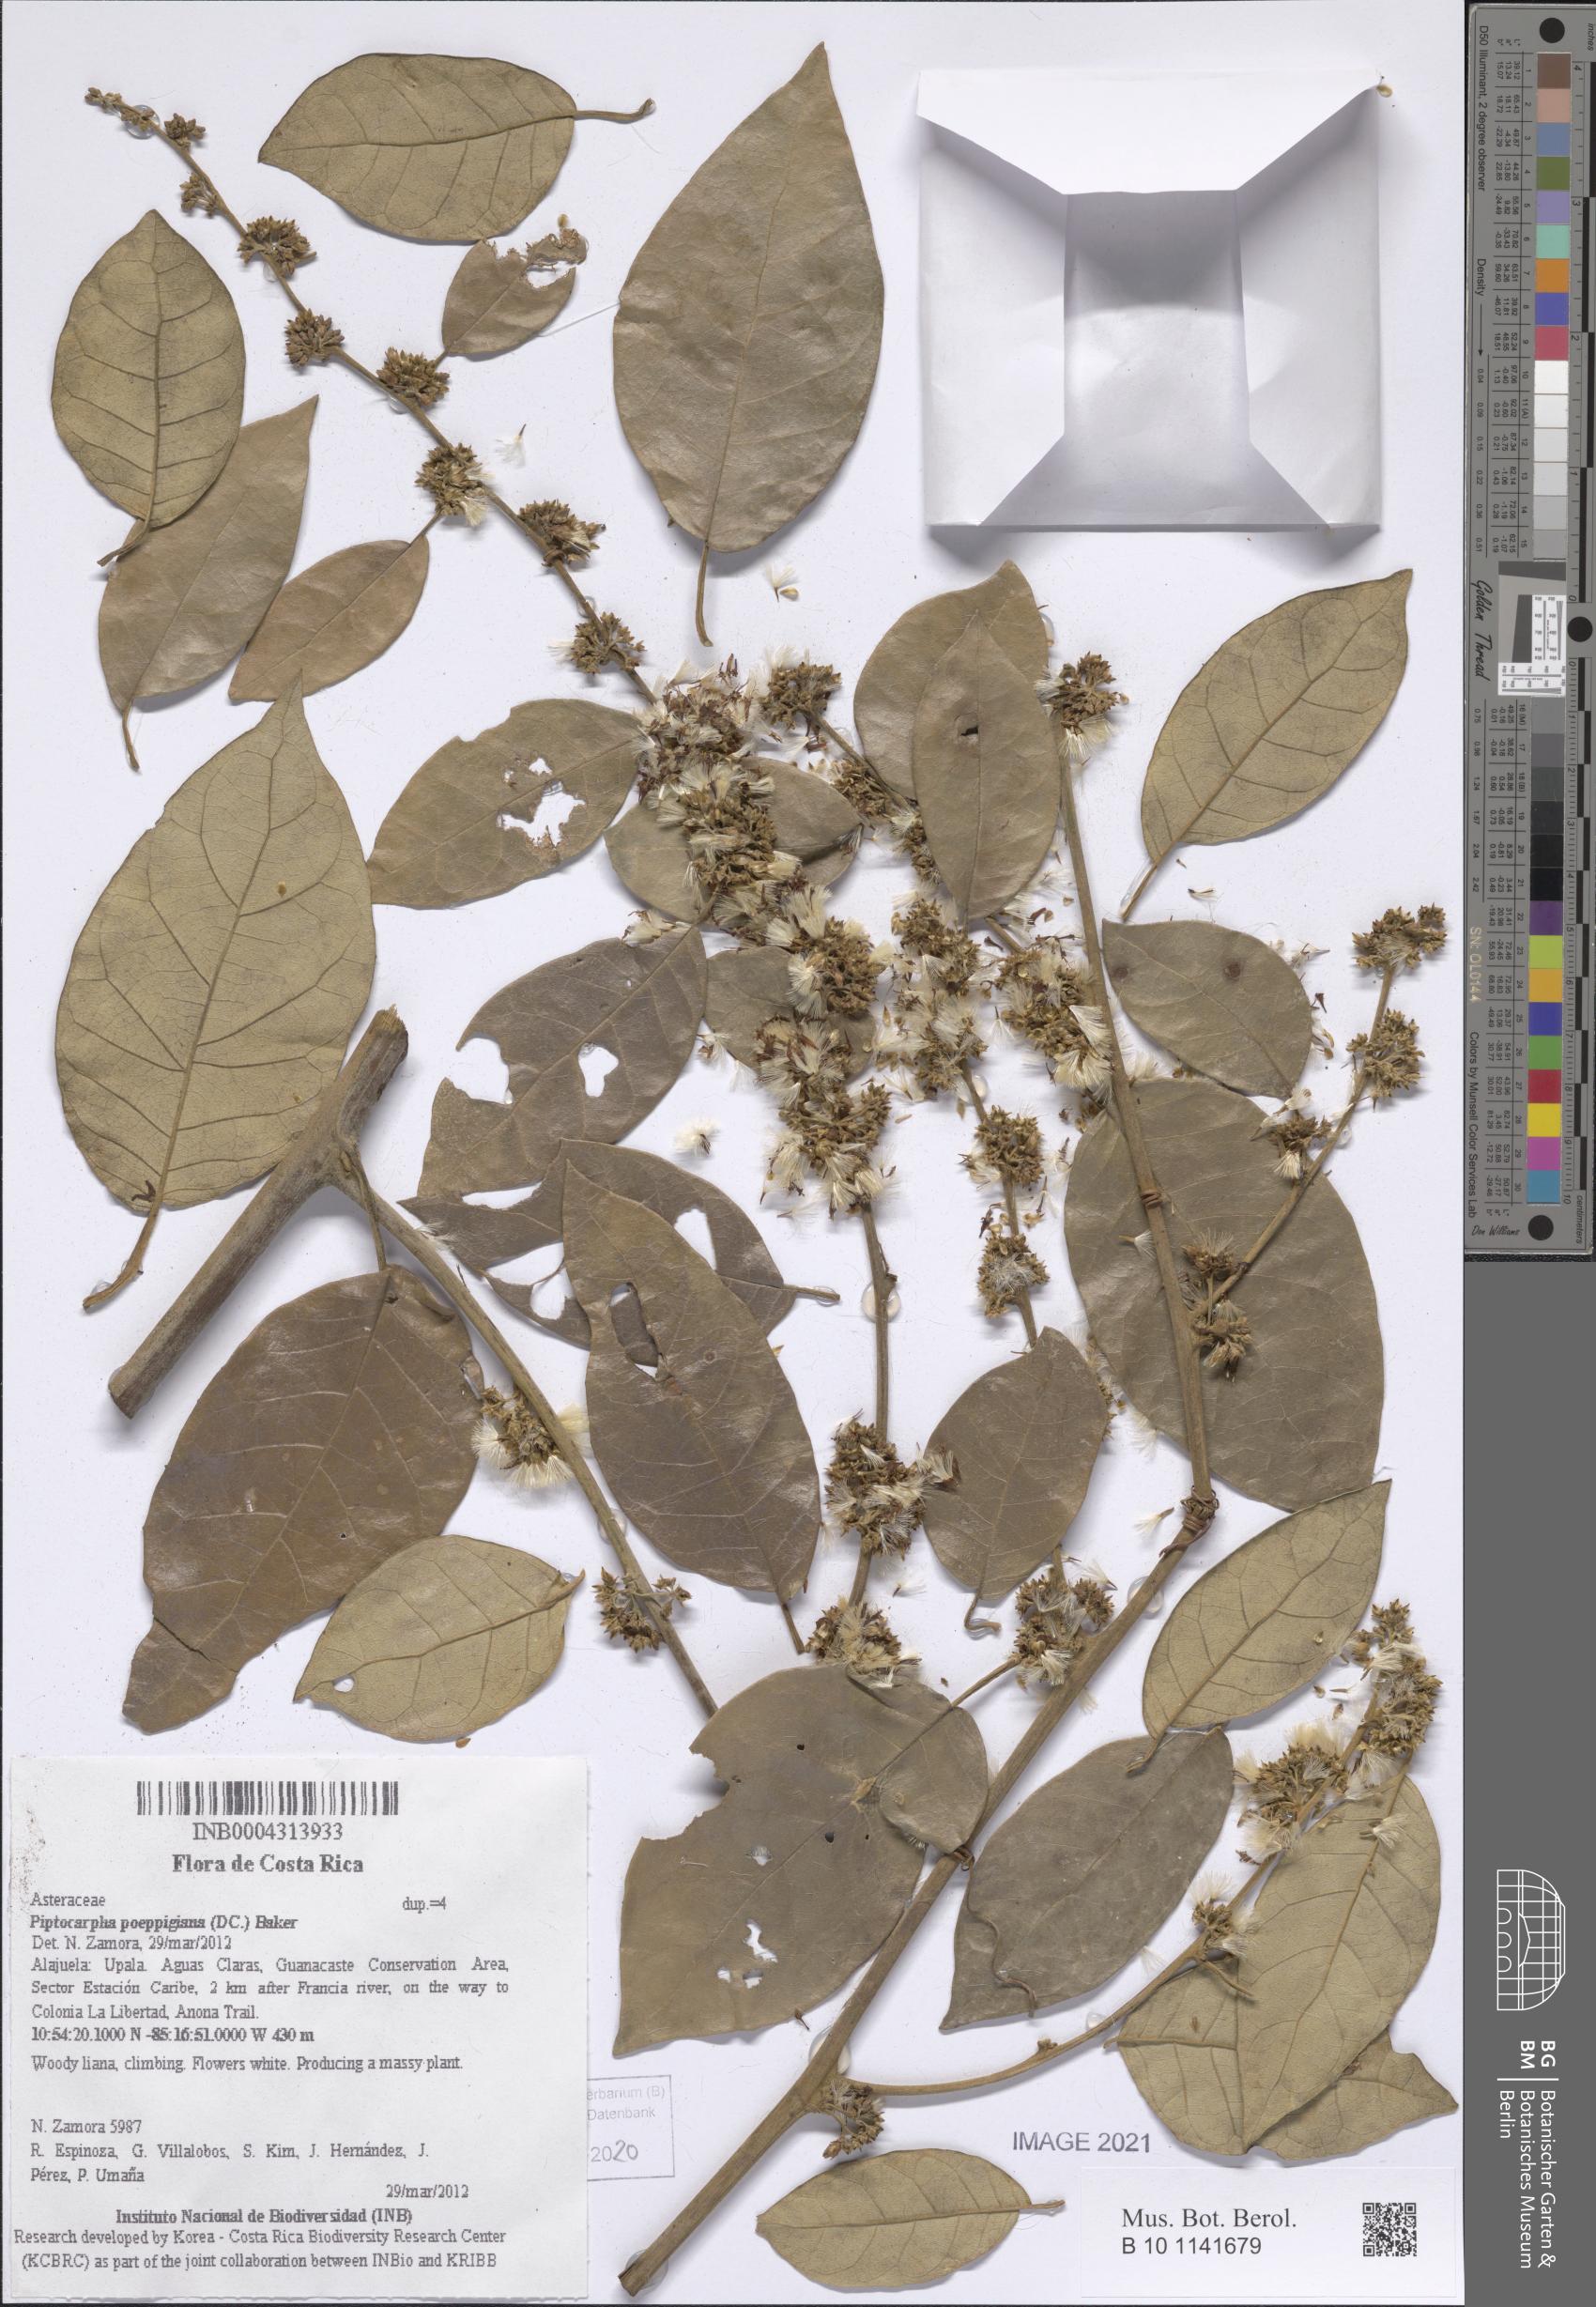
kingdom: Plantae
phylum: Tracheophyta
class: Magnoliopsida
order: Asterales
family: Asteraceae
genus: Piptocarpha
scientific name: Piptocarpha poeppigiana
